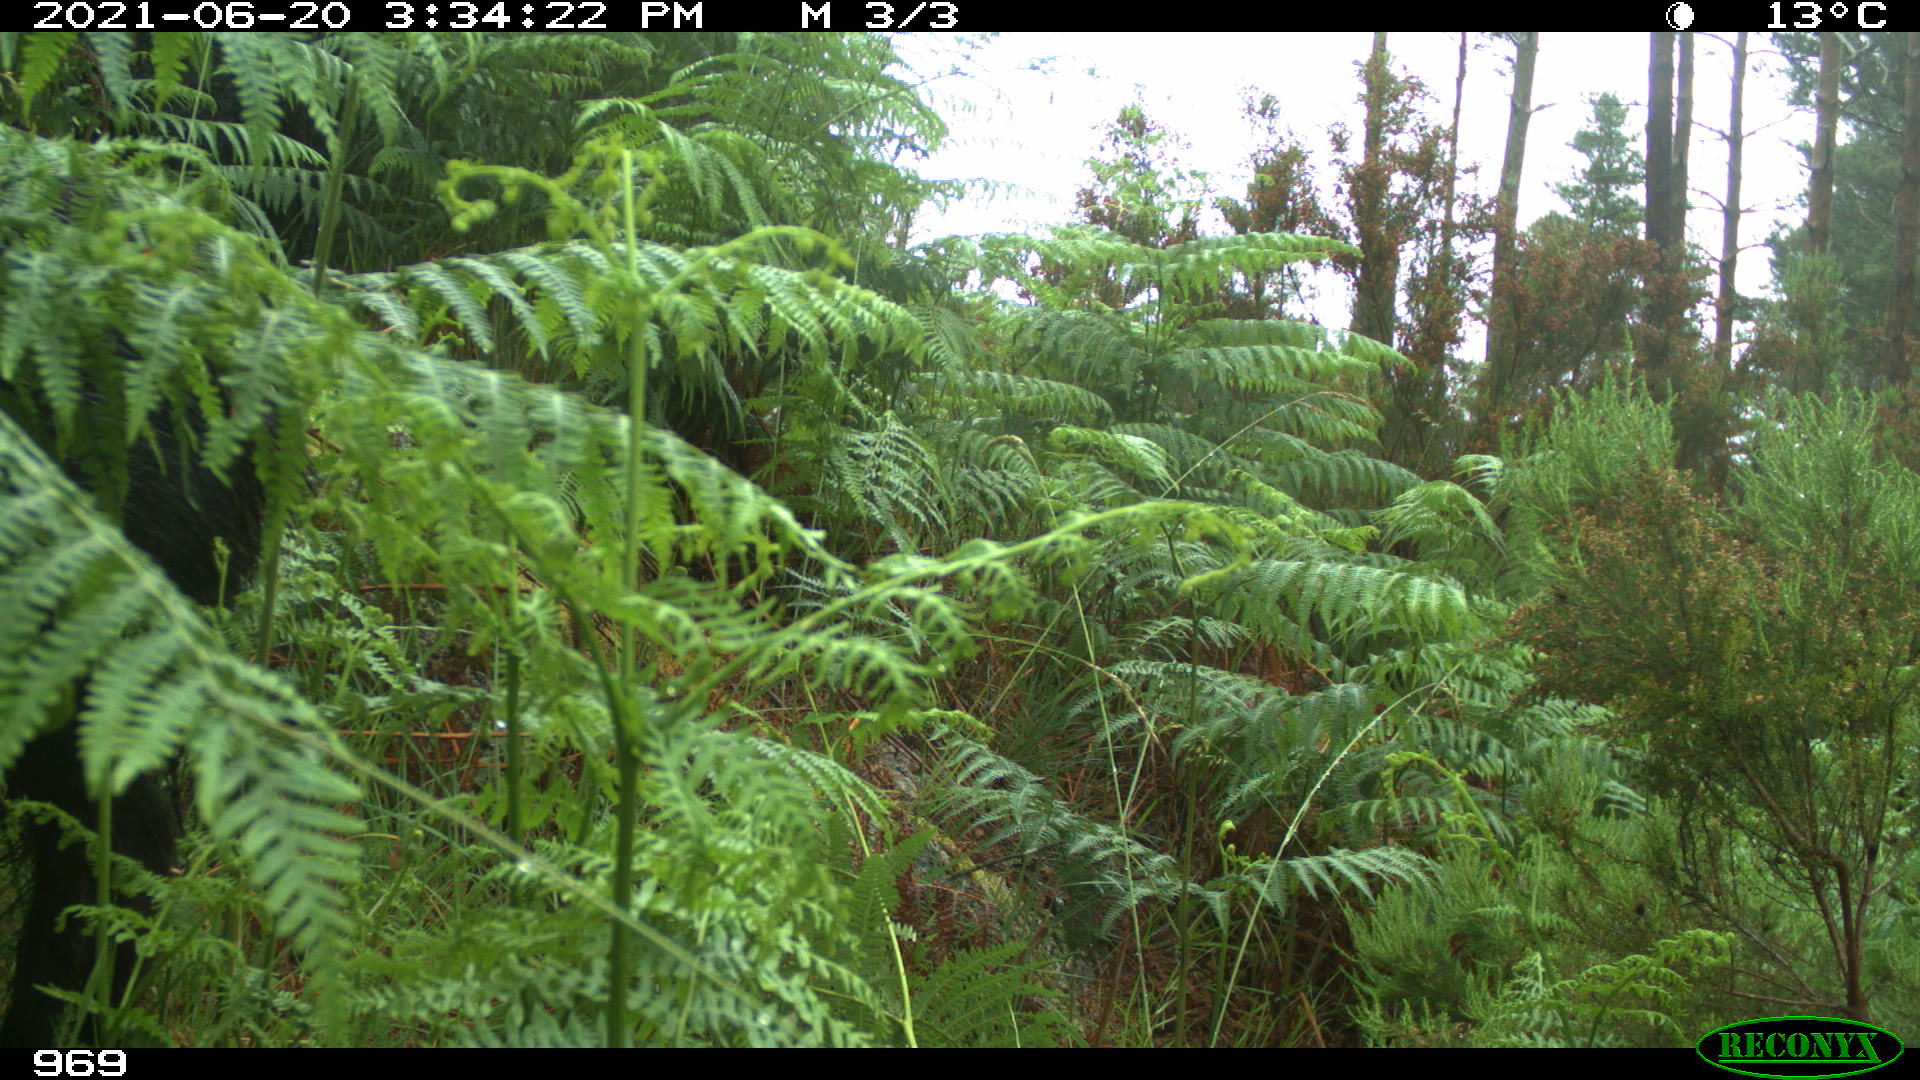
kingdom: Animalia
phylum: Chordata
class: Mammalia
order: Artiodactyla
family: Suidae
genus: Sus
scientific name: Sus scrofa
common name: Wild boar
